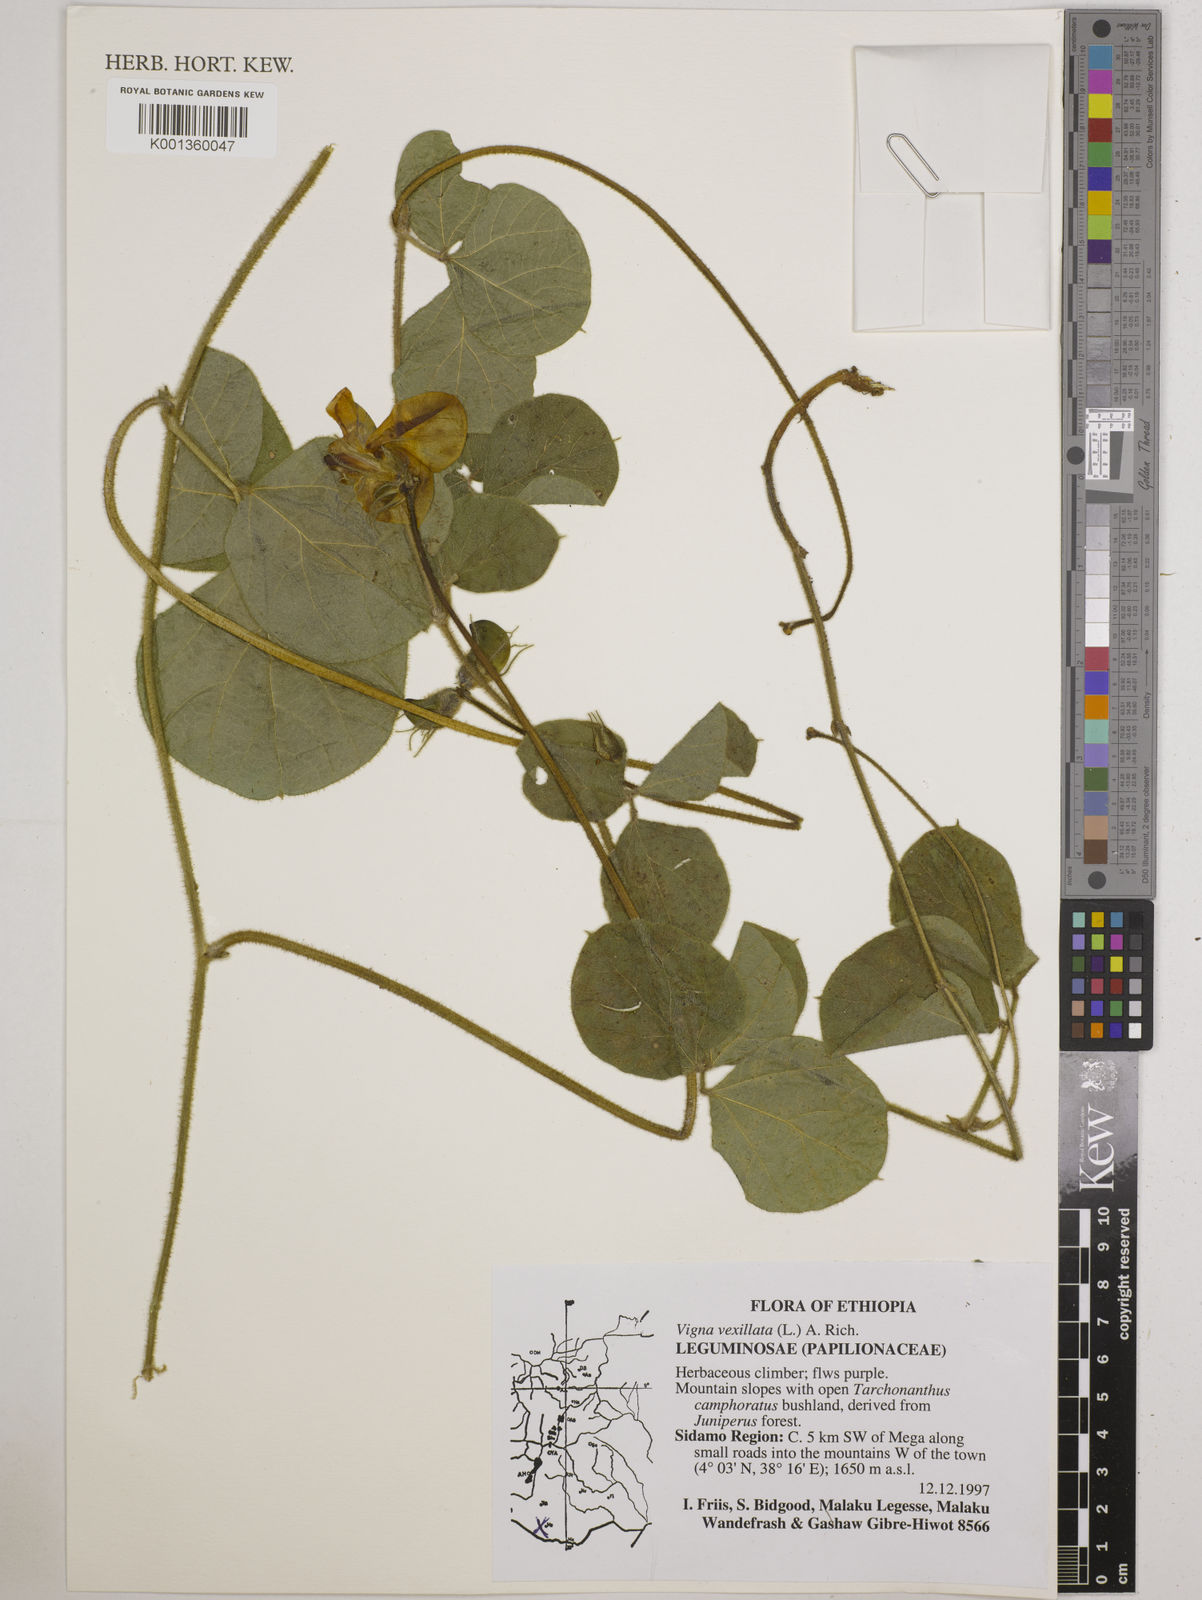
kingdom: Plantae
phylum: Tracheophyta
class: Magnoliopsida
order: Fabales
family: Fabaceae
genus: Vigna
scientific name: Vigna vexillata
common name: Zombi pea
